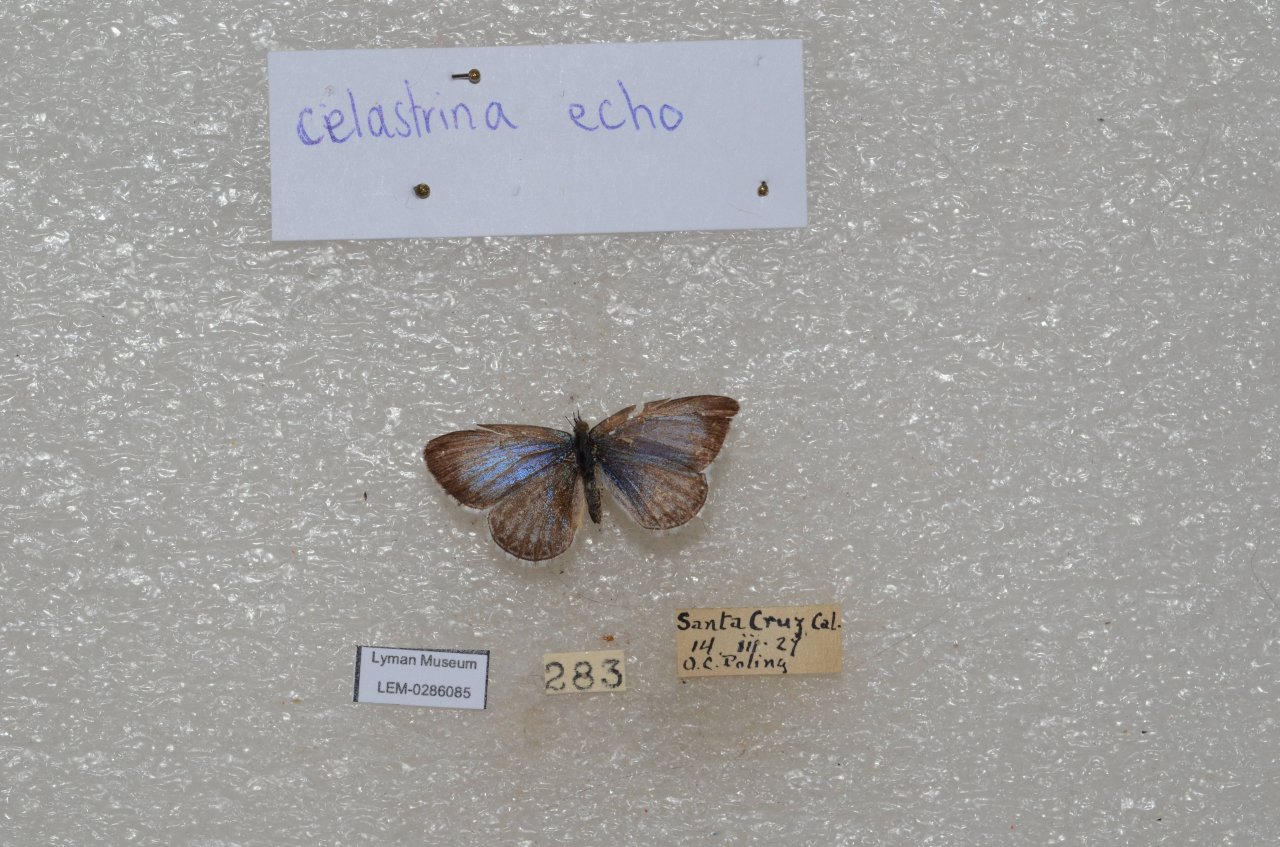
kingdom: Animalia
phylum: Arthropoda
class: Insecta
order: Lepidoptera
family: Lycaenidae
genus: Celastrina
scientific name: Celastrina ladon
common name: Echo Azure
